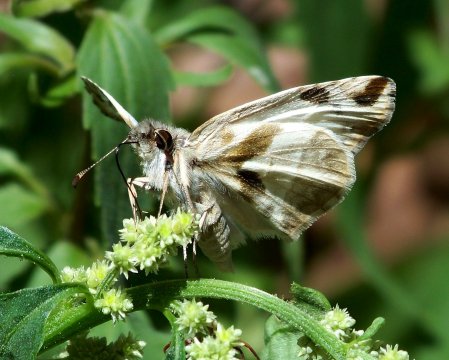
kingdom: Animalia
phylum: Arthropoda
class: Insecta
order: Lepidoptera
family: Hesperiidae
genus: Heliopetes
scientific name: Heliopetes laviana
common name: Laviana White-Skipper
